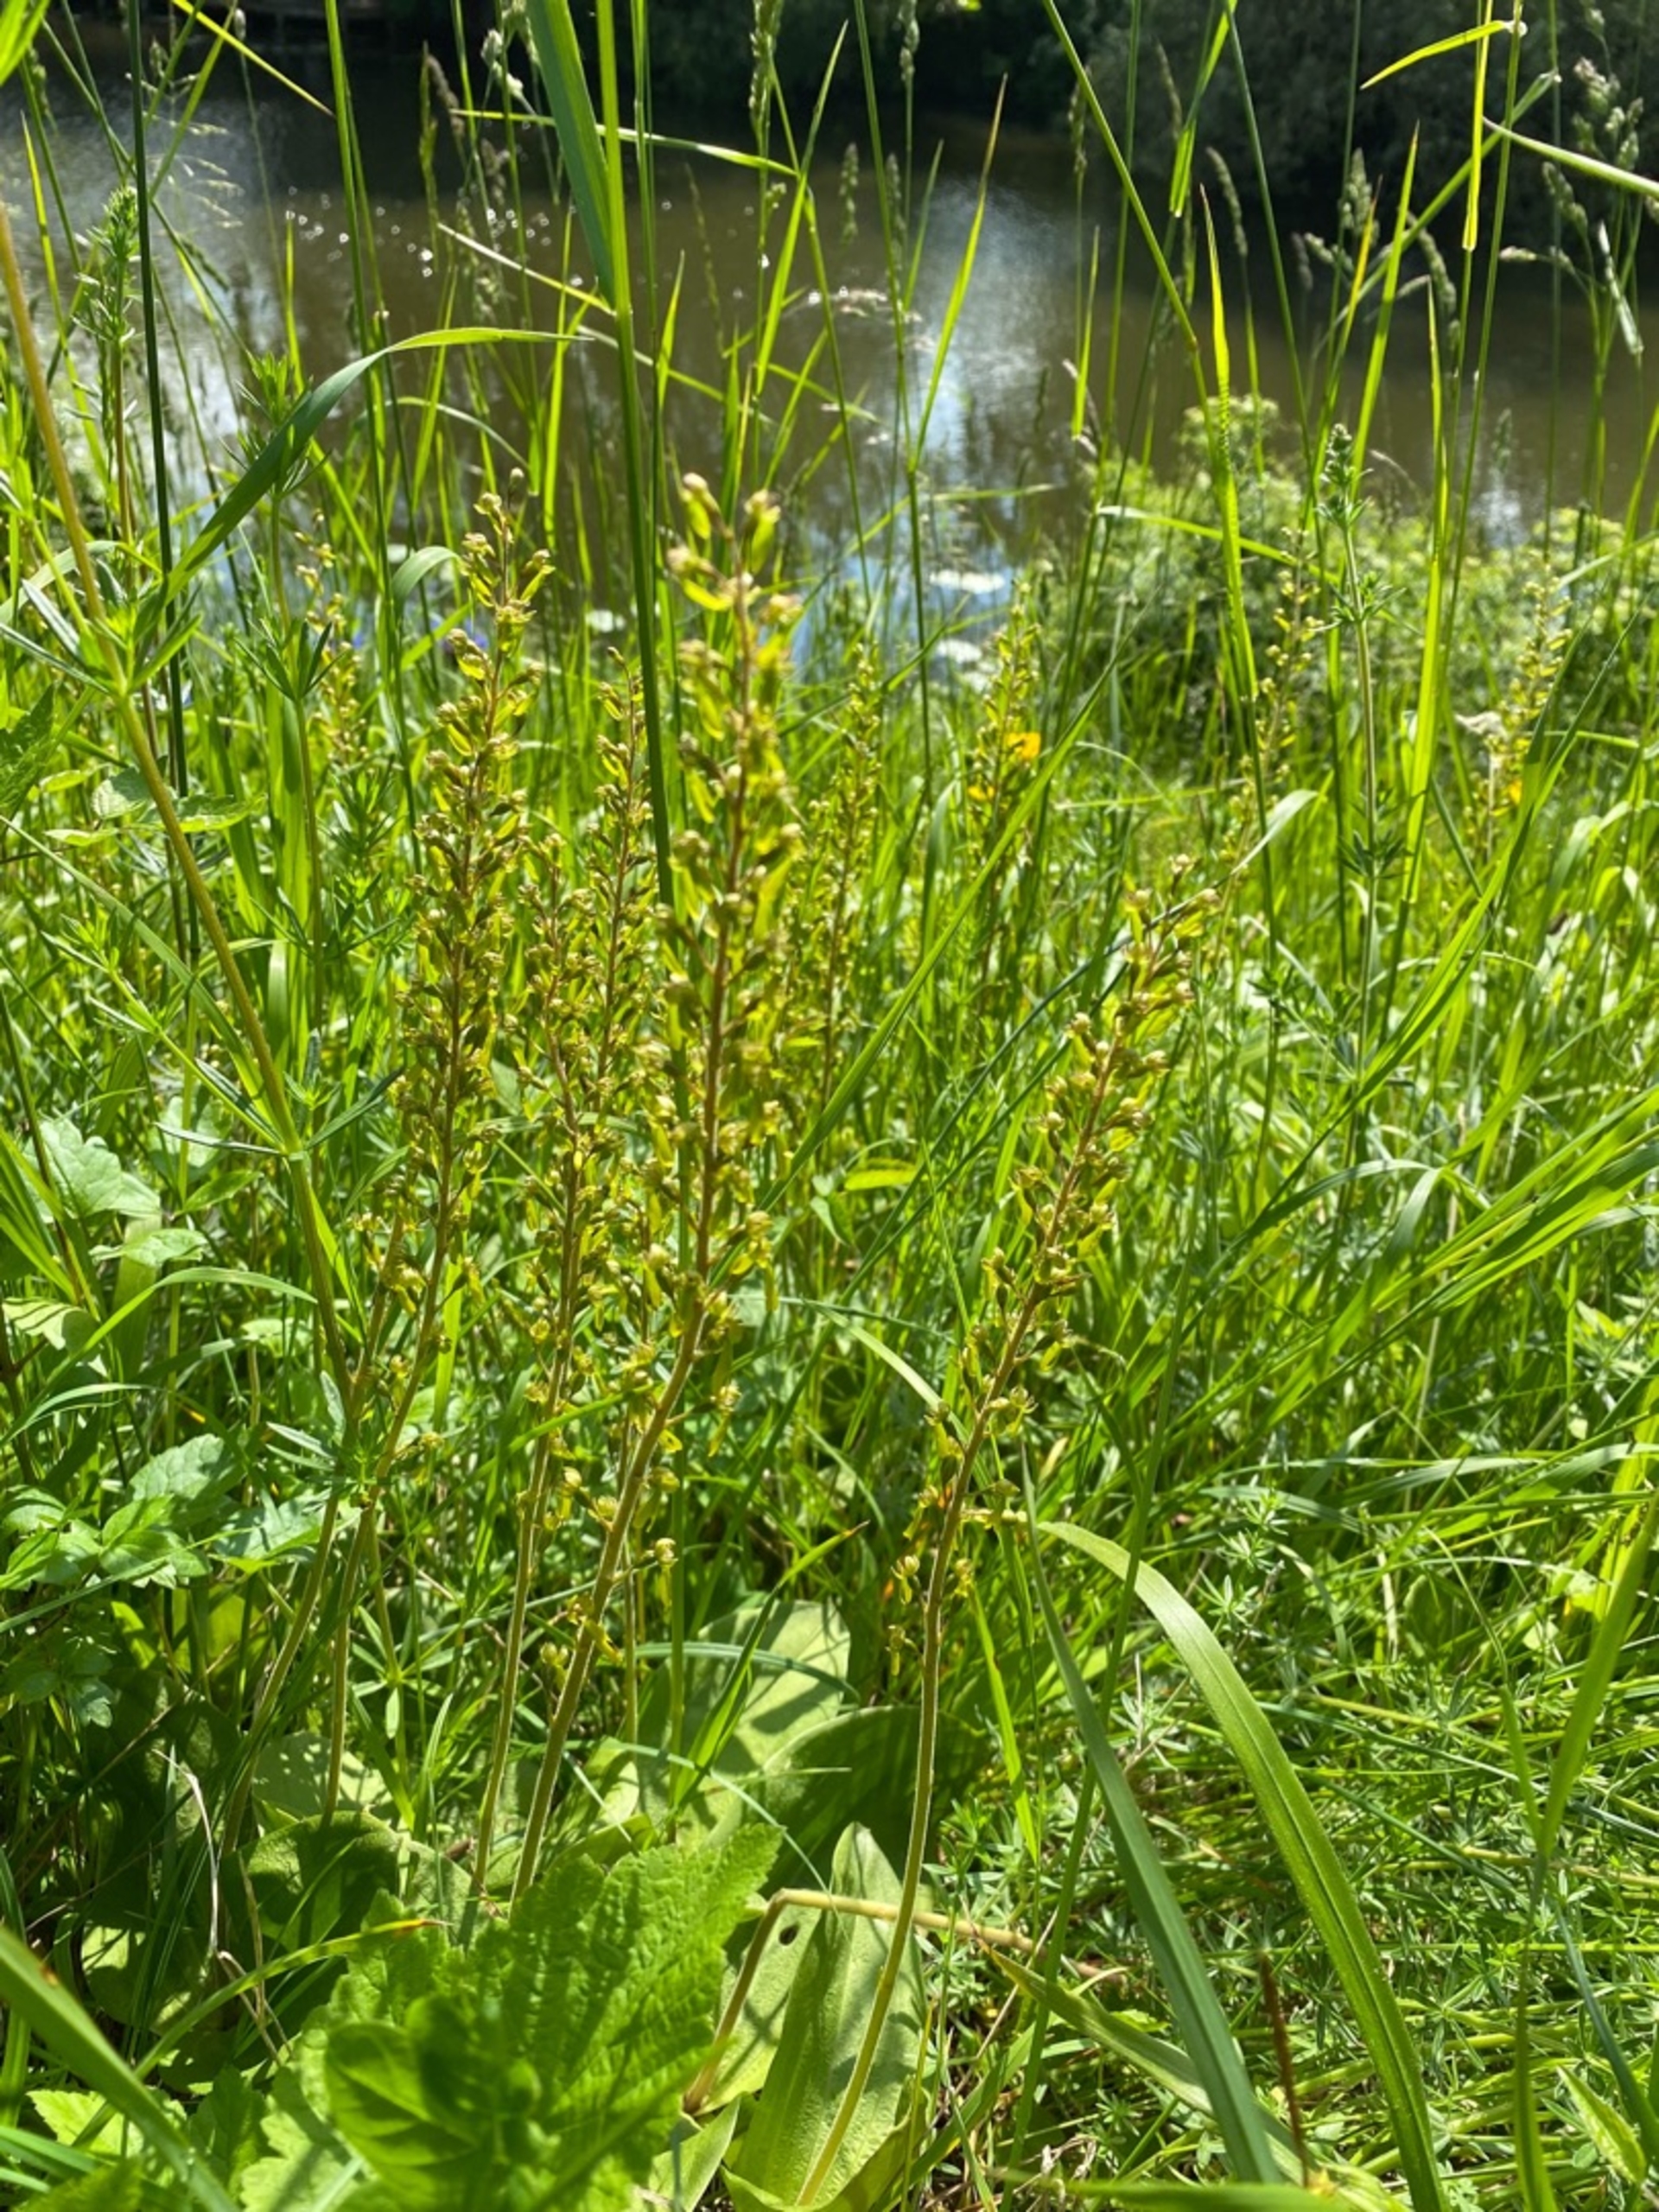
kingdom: Plantae
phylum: Tracheophyta
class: Liliopsida
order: Asparagales
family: Orchidaceae
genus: Neottia
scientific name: Neottia ovata
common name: Ægbladet fliglæbe
